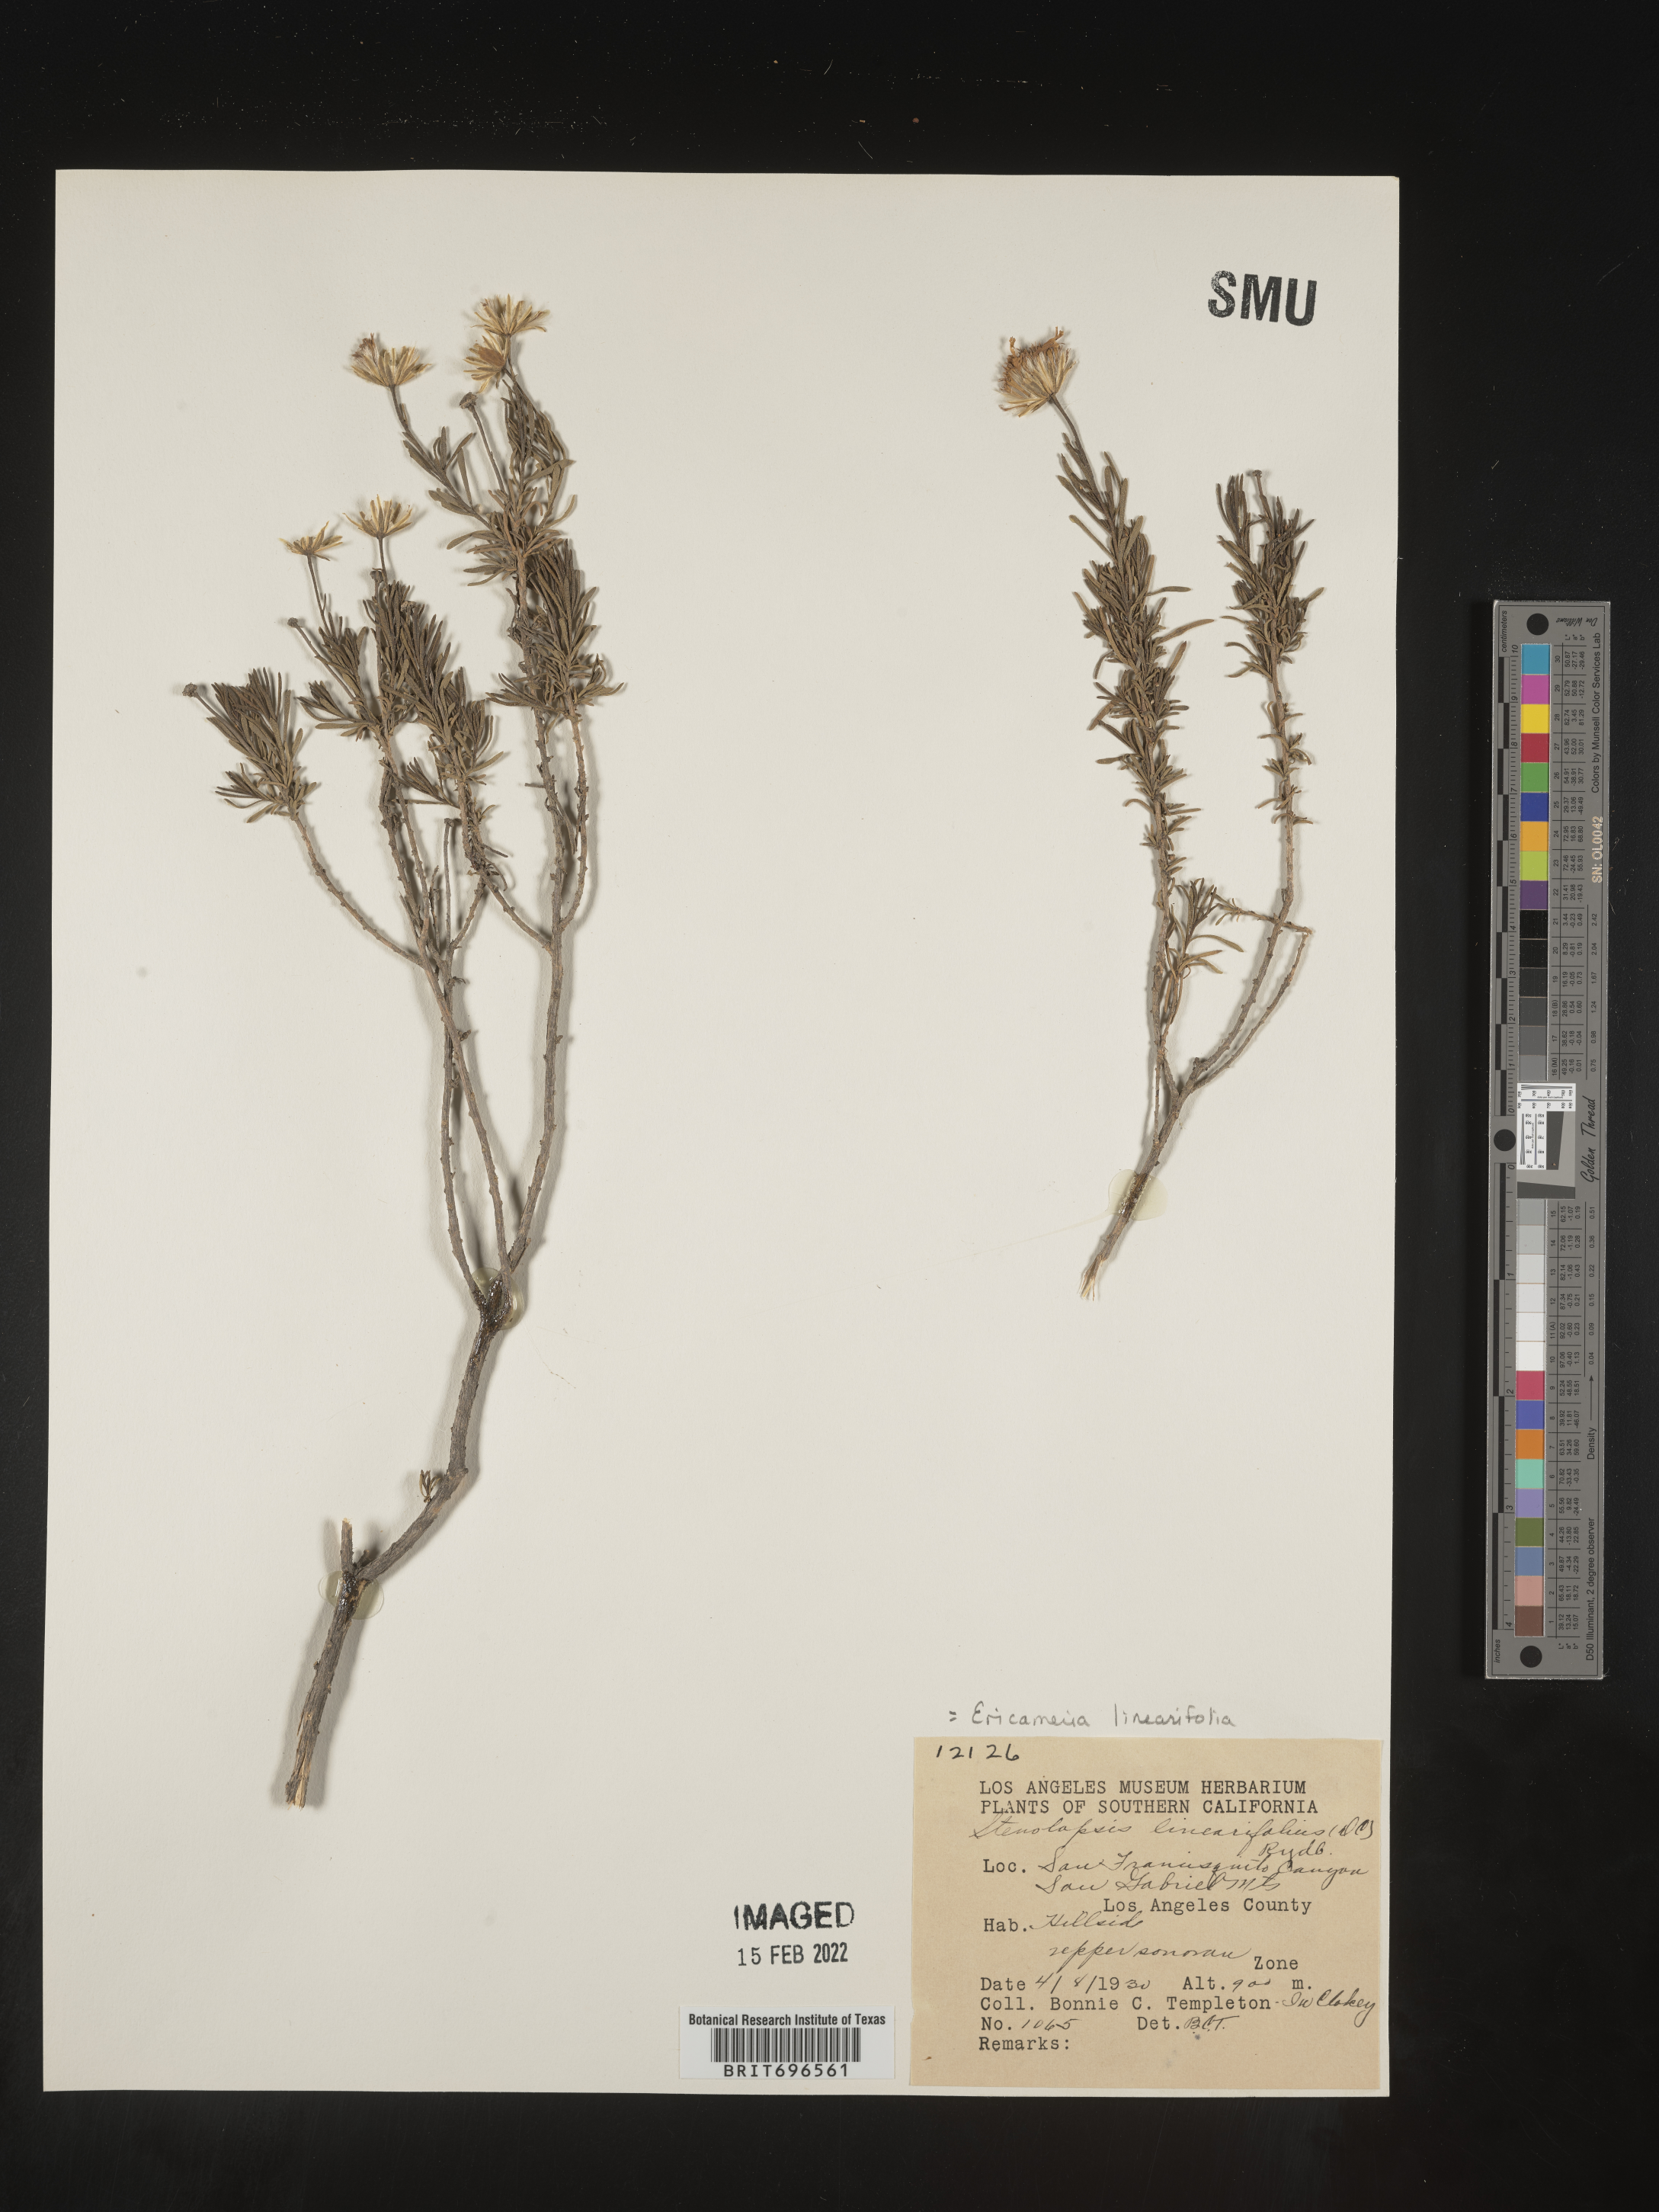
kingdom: Plantae
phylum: Tracheophyta
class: Magnoliopsida
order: Asterales
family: Asteraceae
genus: Ericameria
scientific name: Ericameria linearifolia
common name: Interior goldenbush
